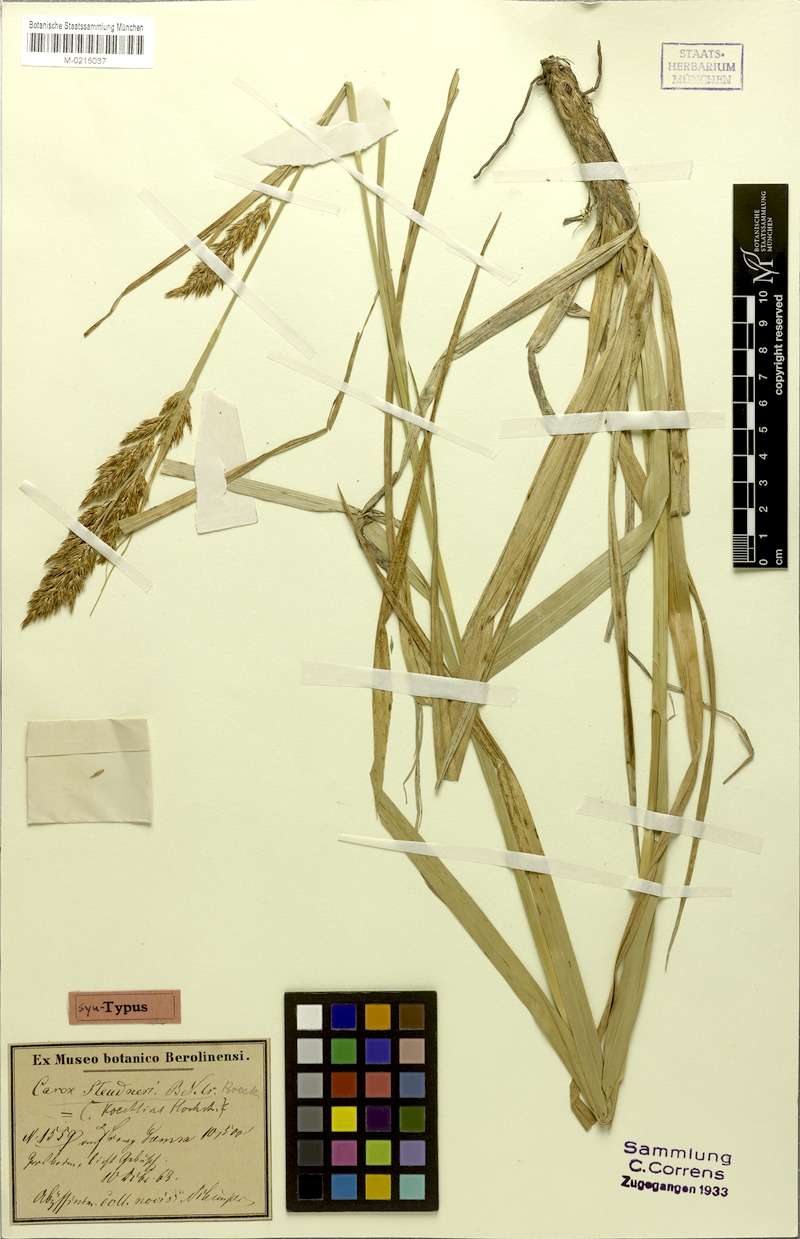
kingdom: Plantae
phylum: Tracheophyta
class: Liliopsida
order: Poales
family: Cyperaceae
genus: Carex
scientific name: Carex steudneri
